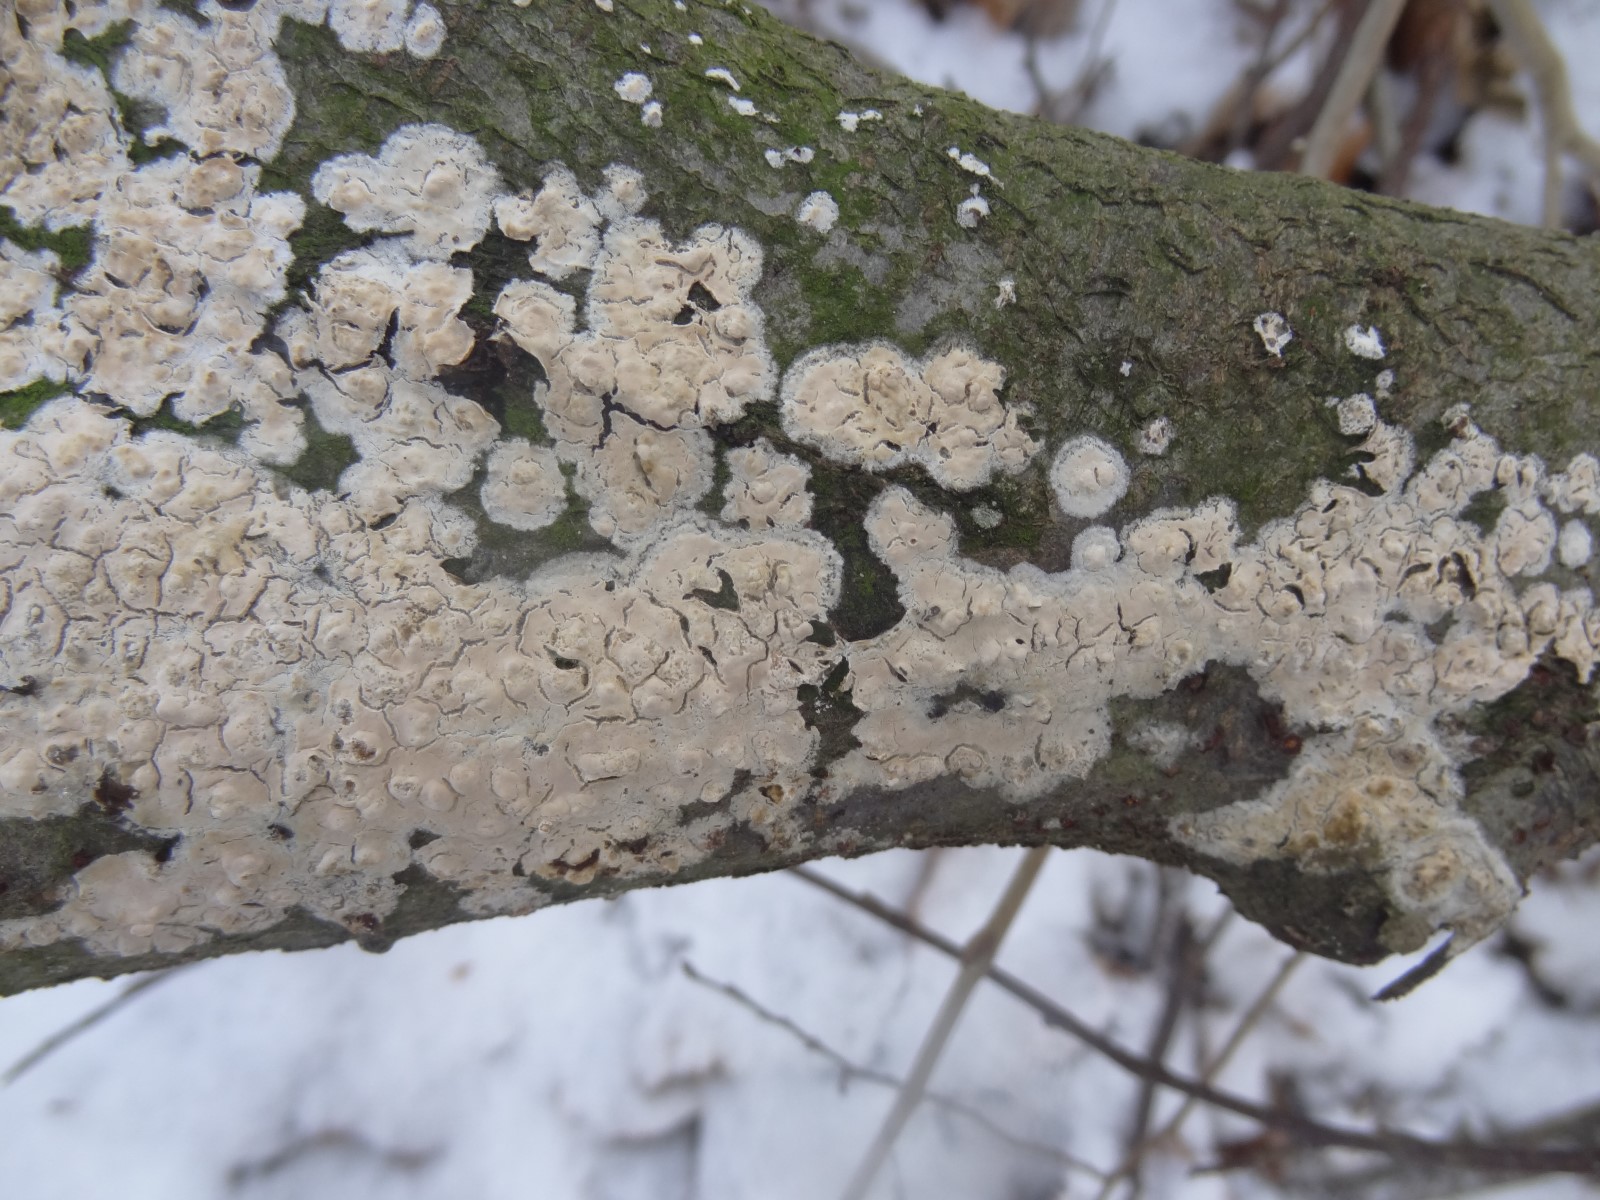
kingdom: Fungi
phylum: Basidiomycota
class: Agaricomycetes
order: Agaricales
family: Physalacriaceae
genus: Cylindrobasidium
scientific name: Cylindrobasidium evolvens
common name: sprækkehinde
